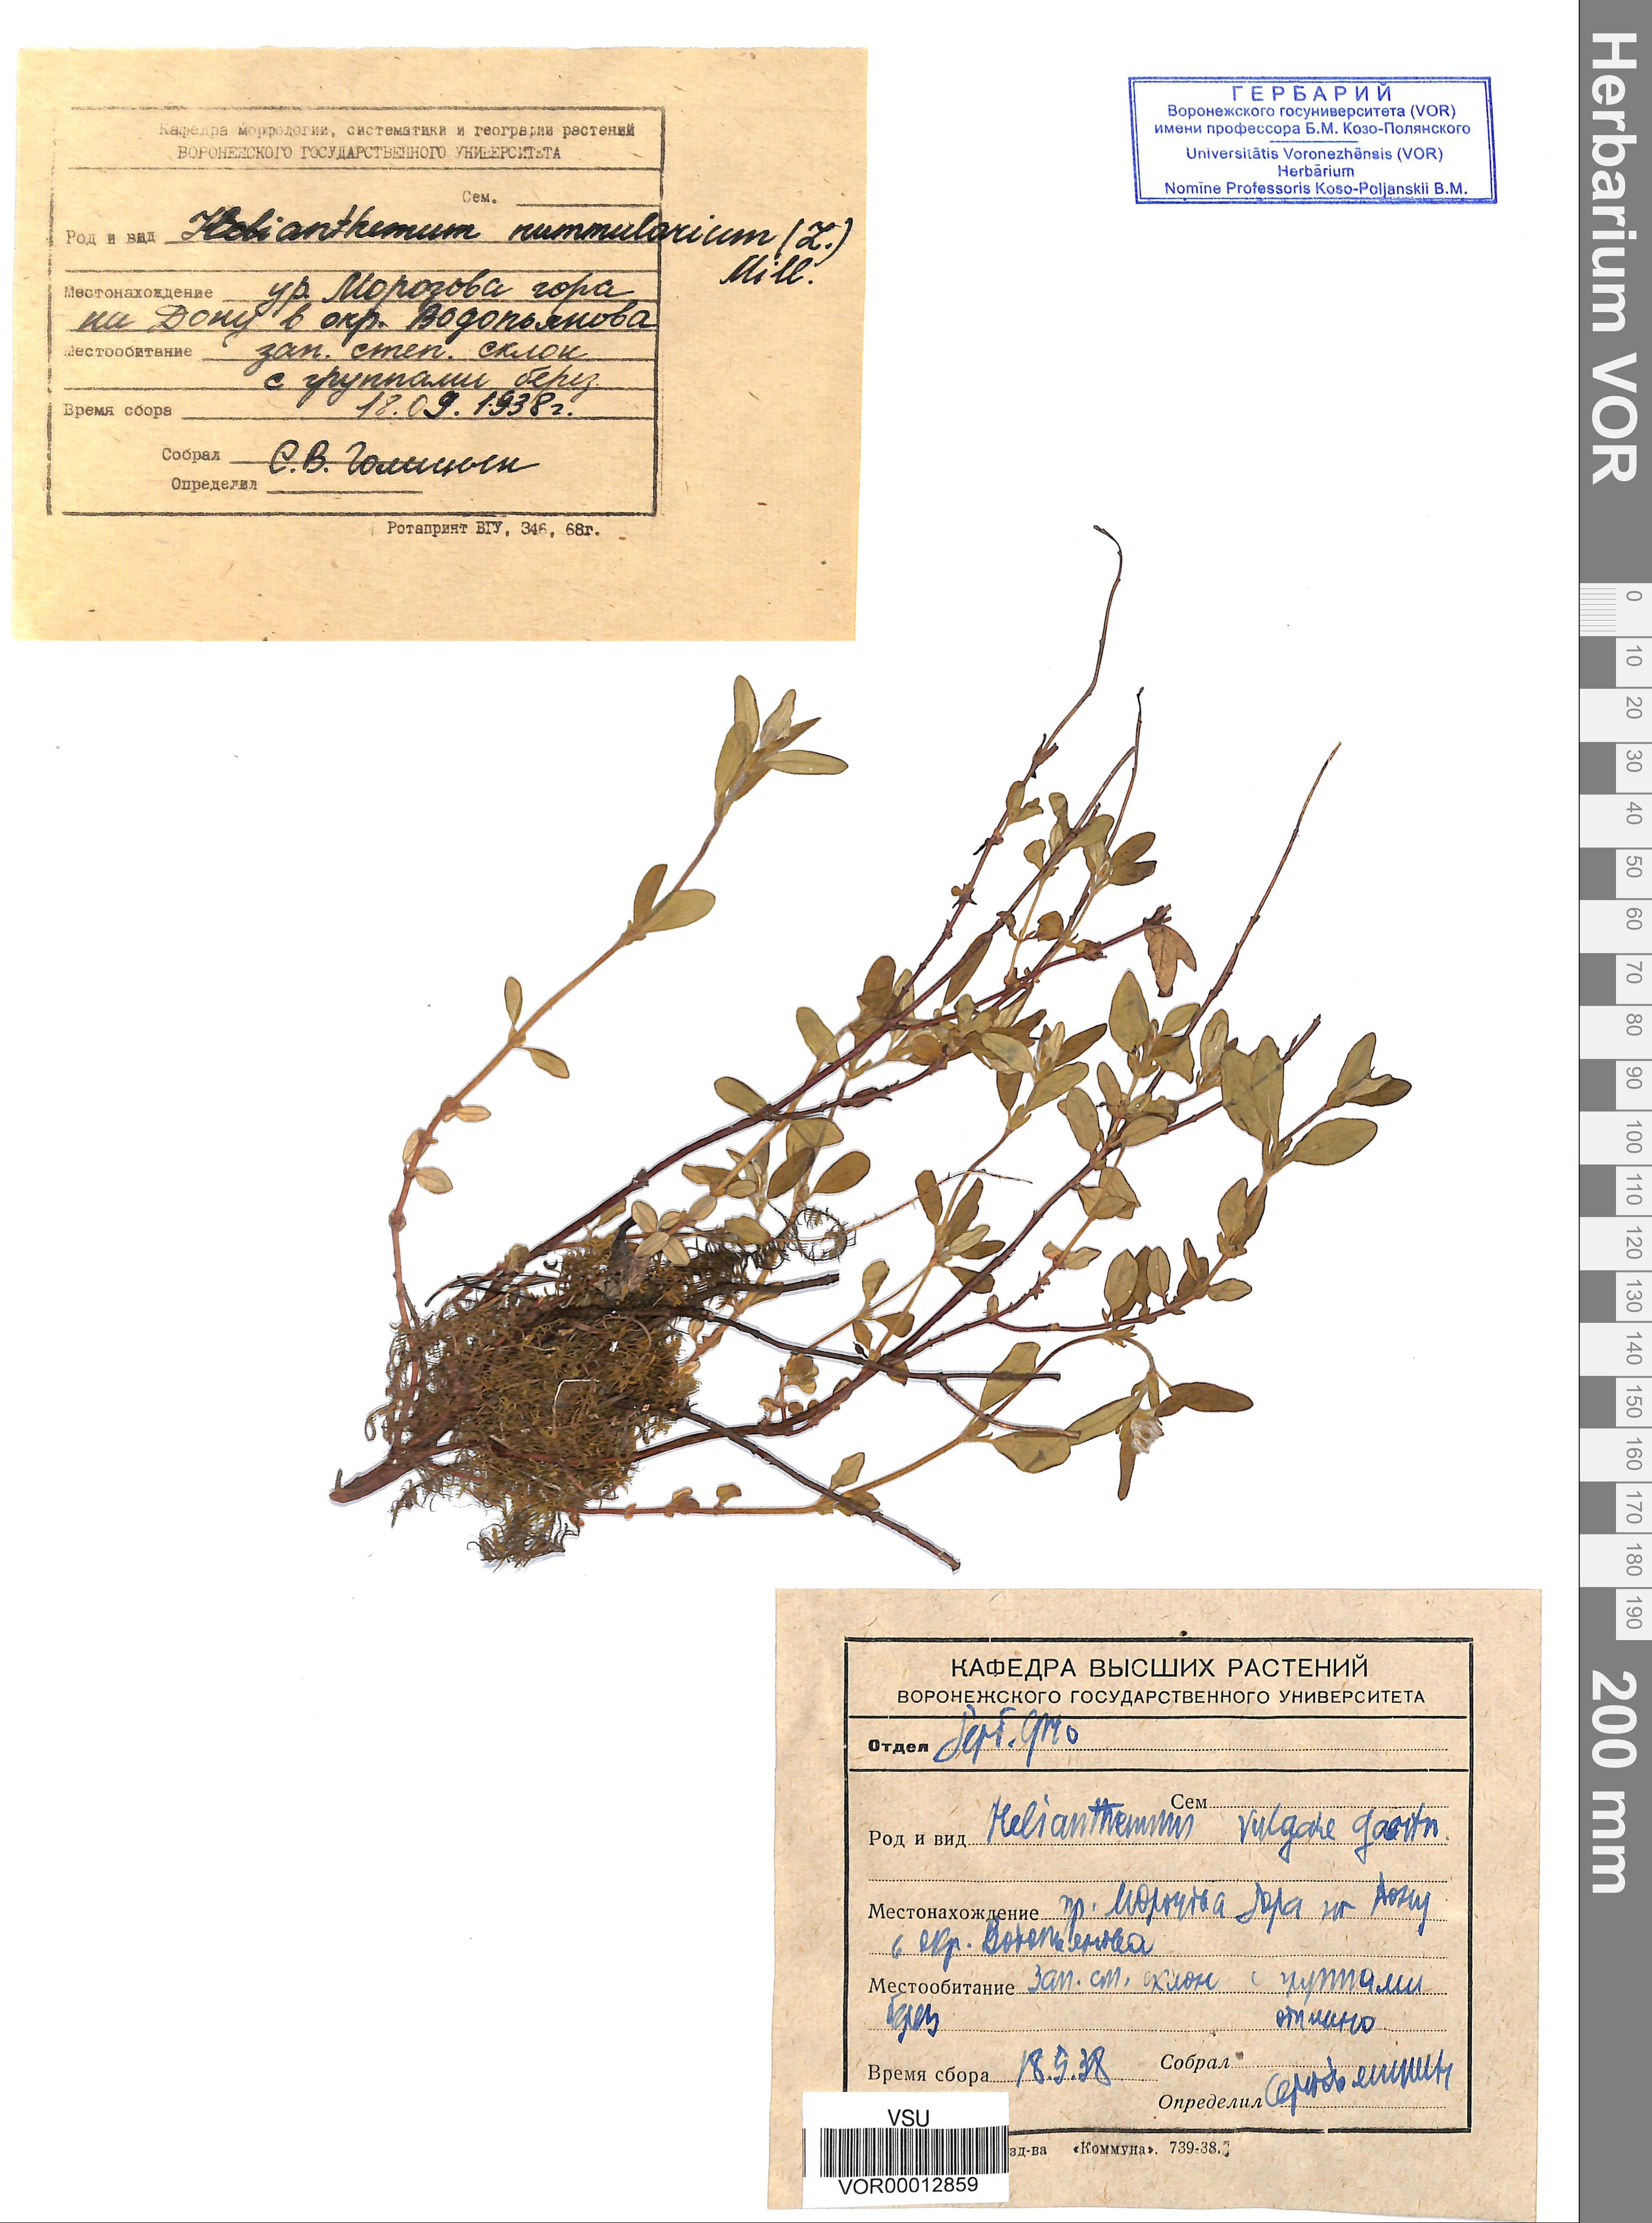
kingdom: Plantae
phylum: Tracheophyta
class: Magnoliopsida
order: Malvales
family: Cistaceae
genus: Helianthemum
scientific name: Helianthemum nummularium
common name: Common rock-rose
